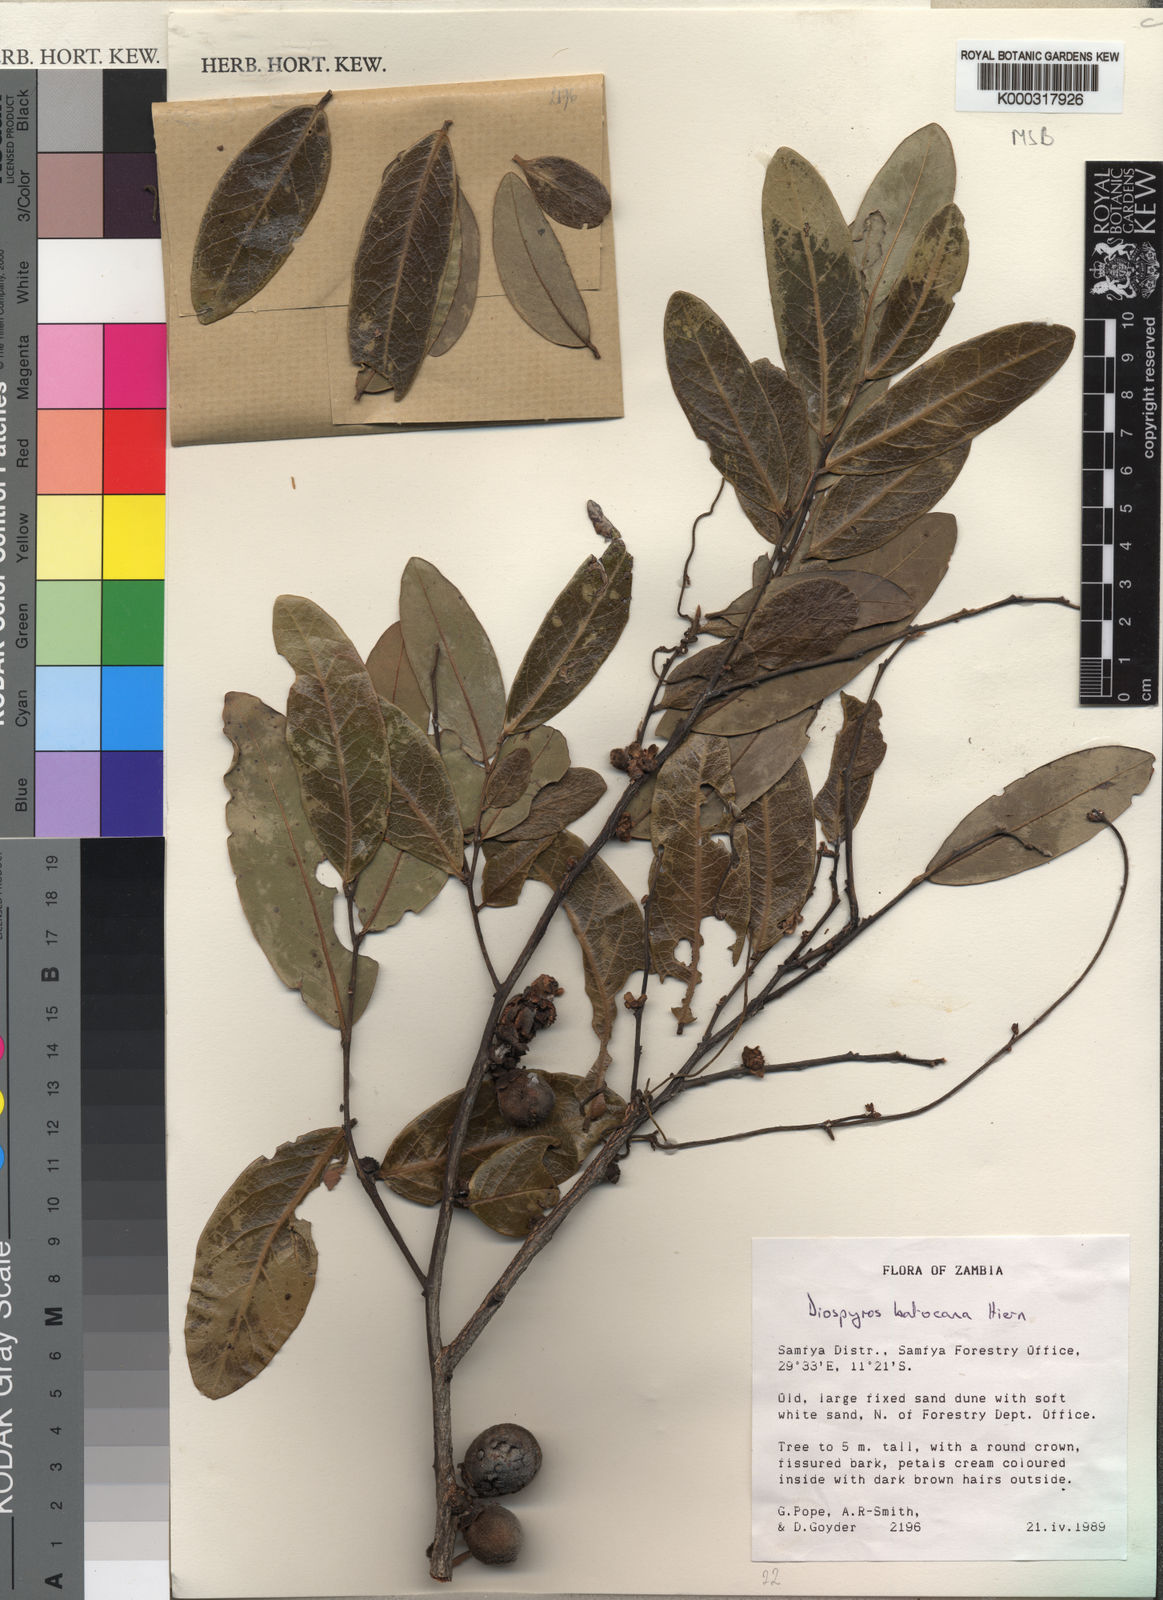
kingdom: Plantae
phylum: Tracheophyta
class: Magnoliopsida
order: Ericales
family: Ebenaceae
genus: Diospyros
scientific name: Diospyros batocana
